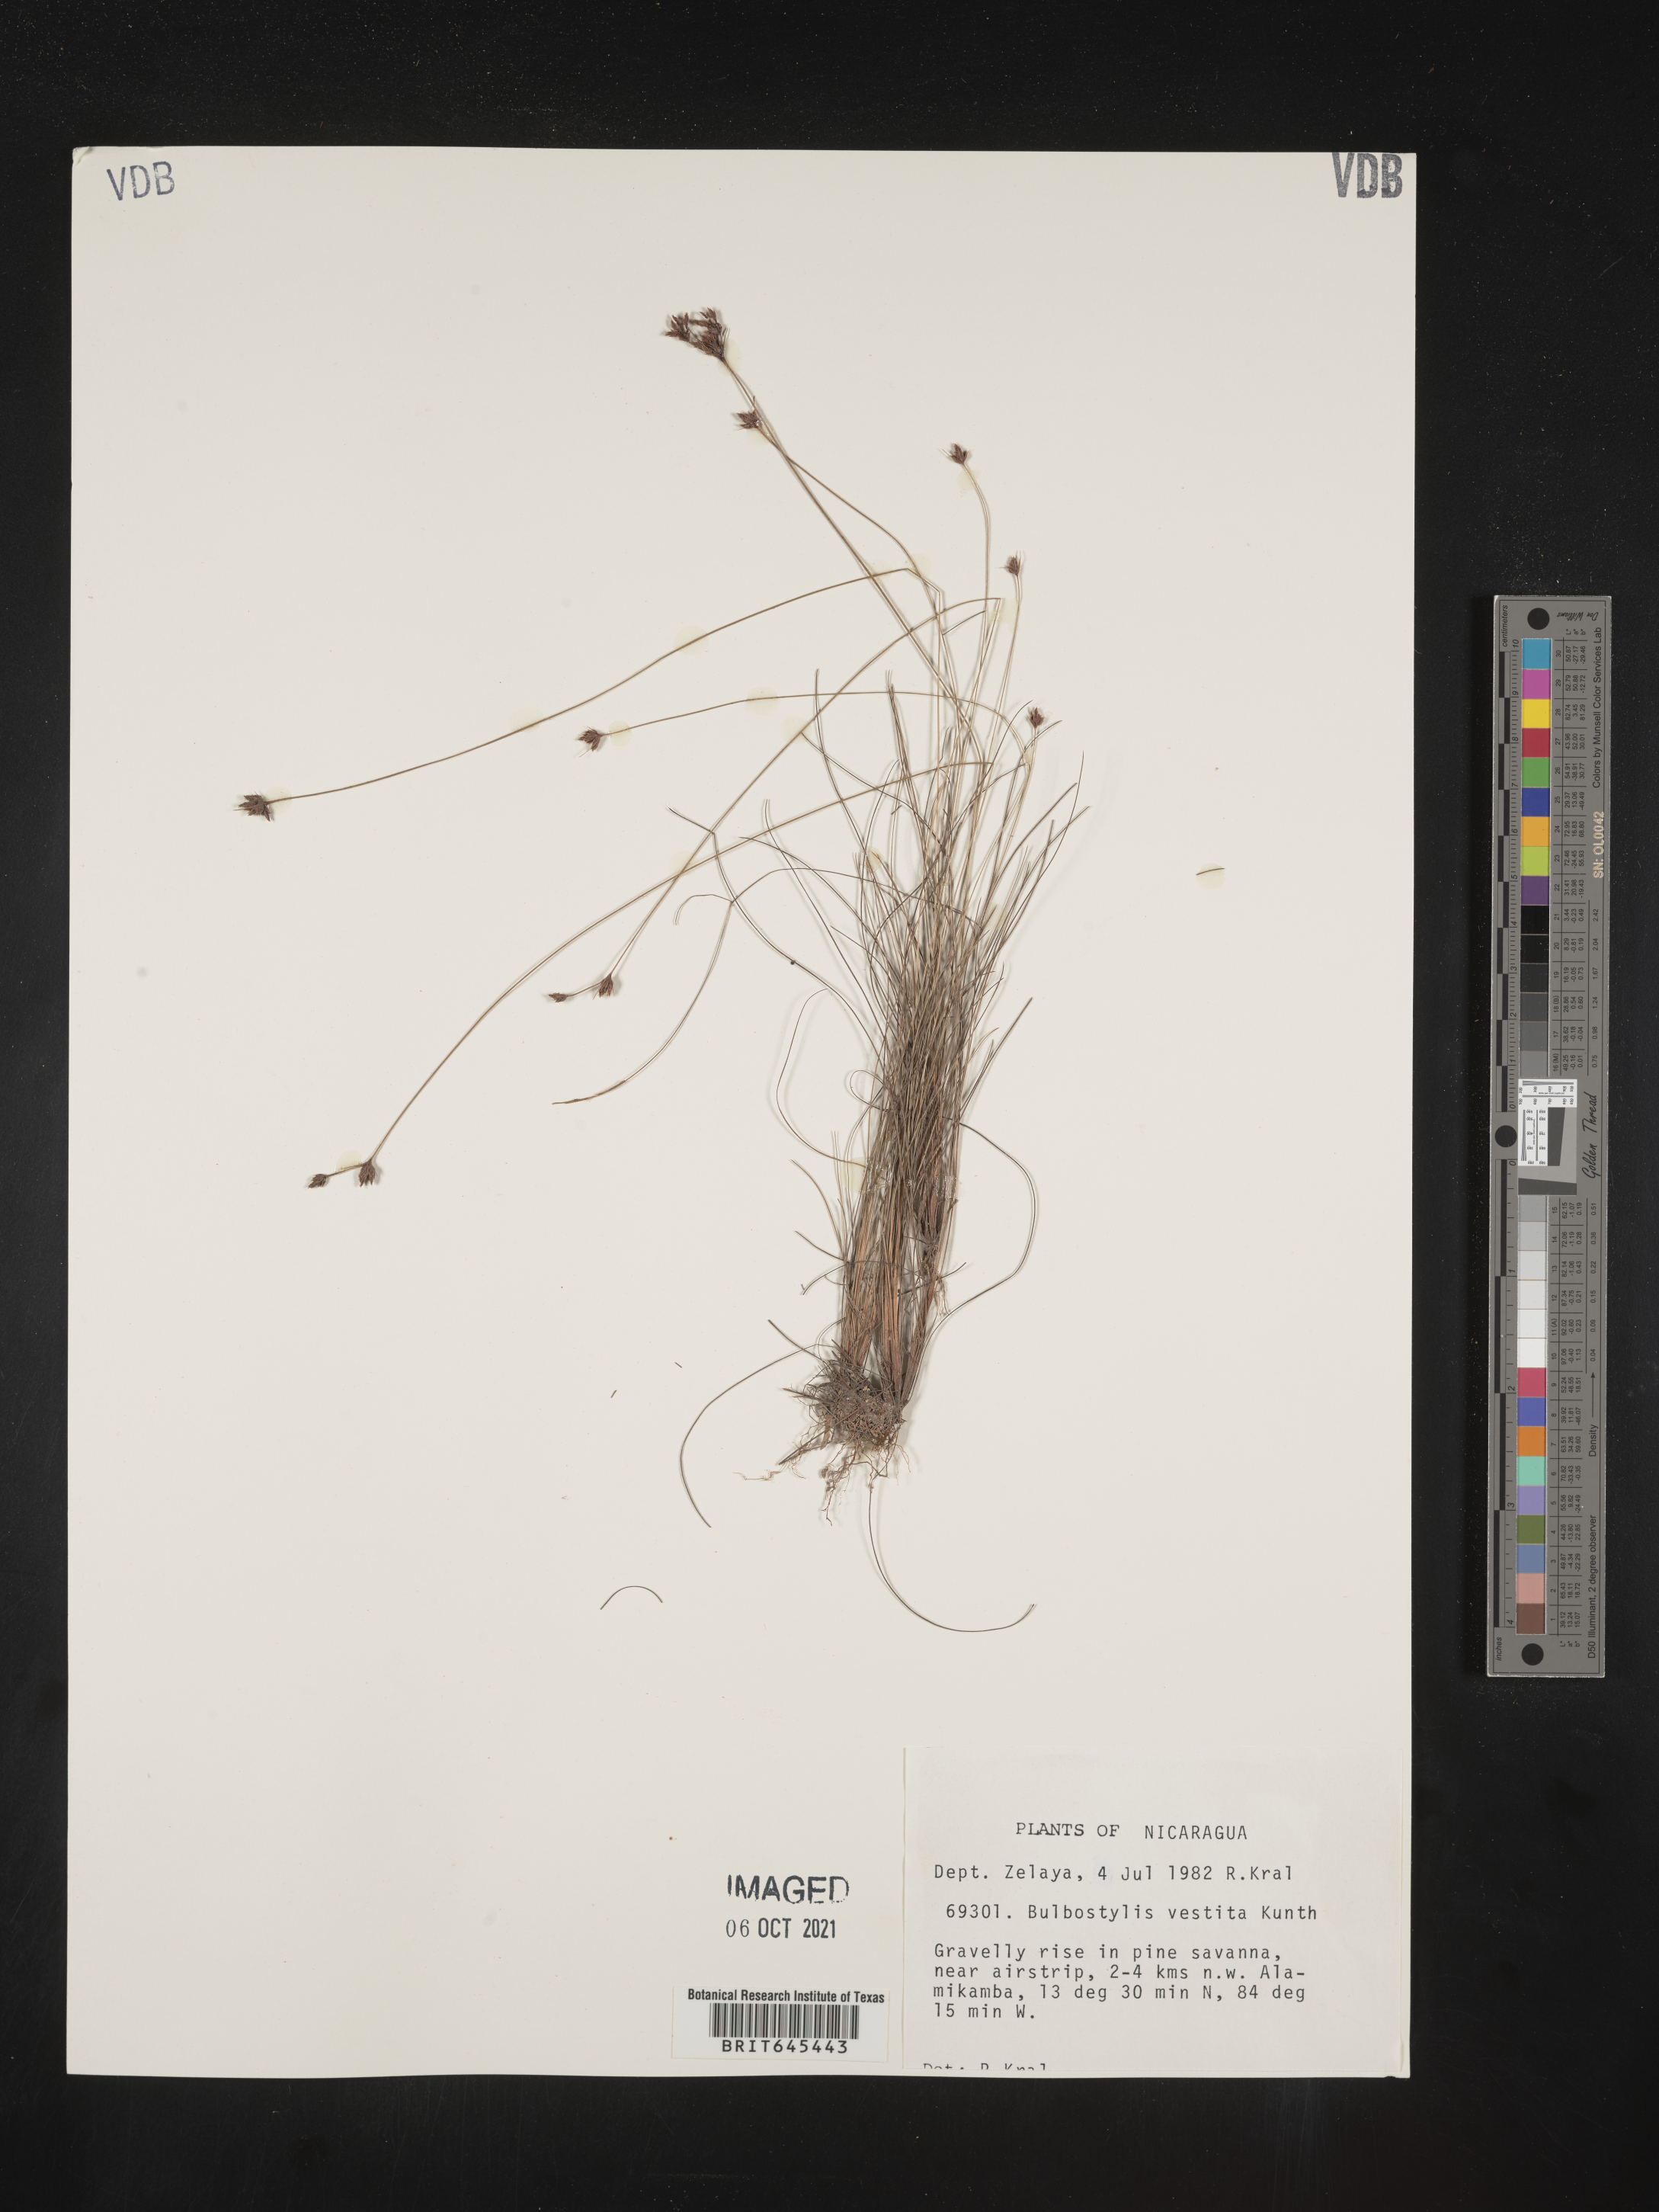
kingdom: Plantae
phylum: Tracheophyta
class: Liliopsida
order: Poales
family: Cyperaceae
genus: Bulbostylis
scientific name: Bulbostylis vestita
